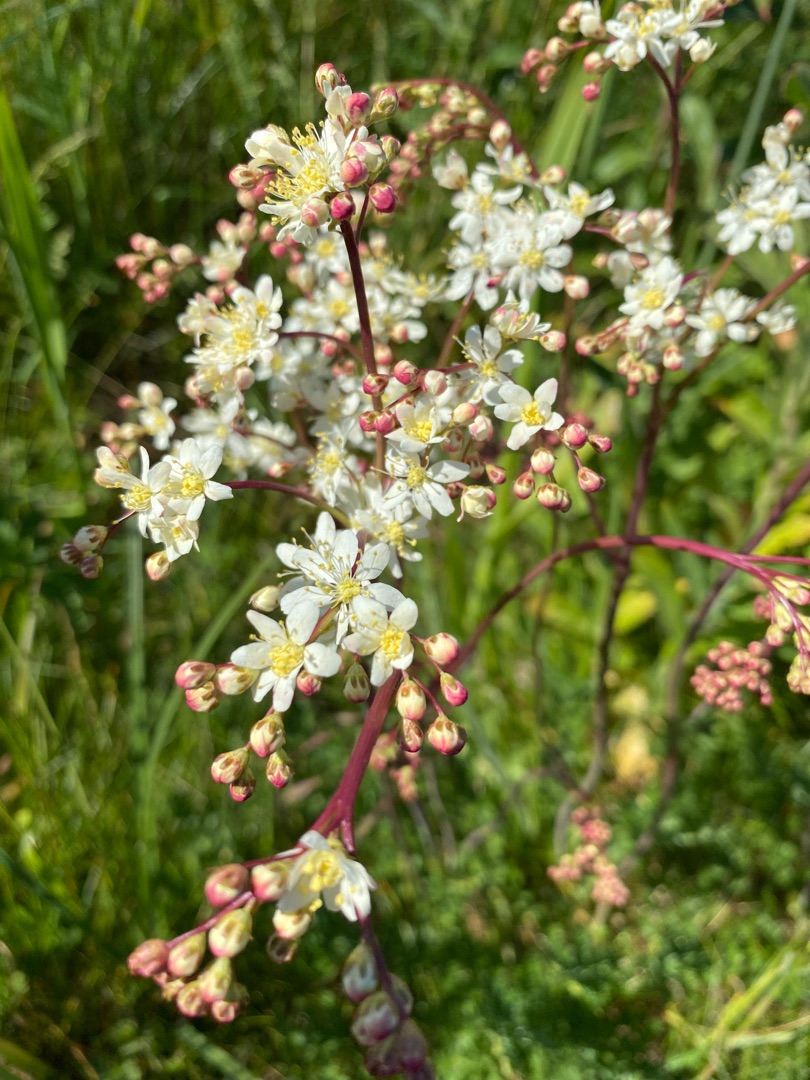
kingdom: Plantae
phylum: Tracheophyta
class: Magnoliopsida
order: Rosales
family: Rosaceae
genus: Filipendula
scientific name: Filipendula vulgaris
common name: Knoldet mjødurt
